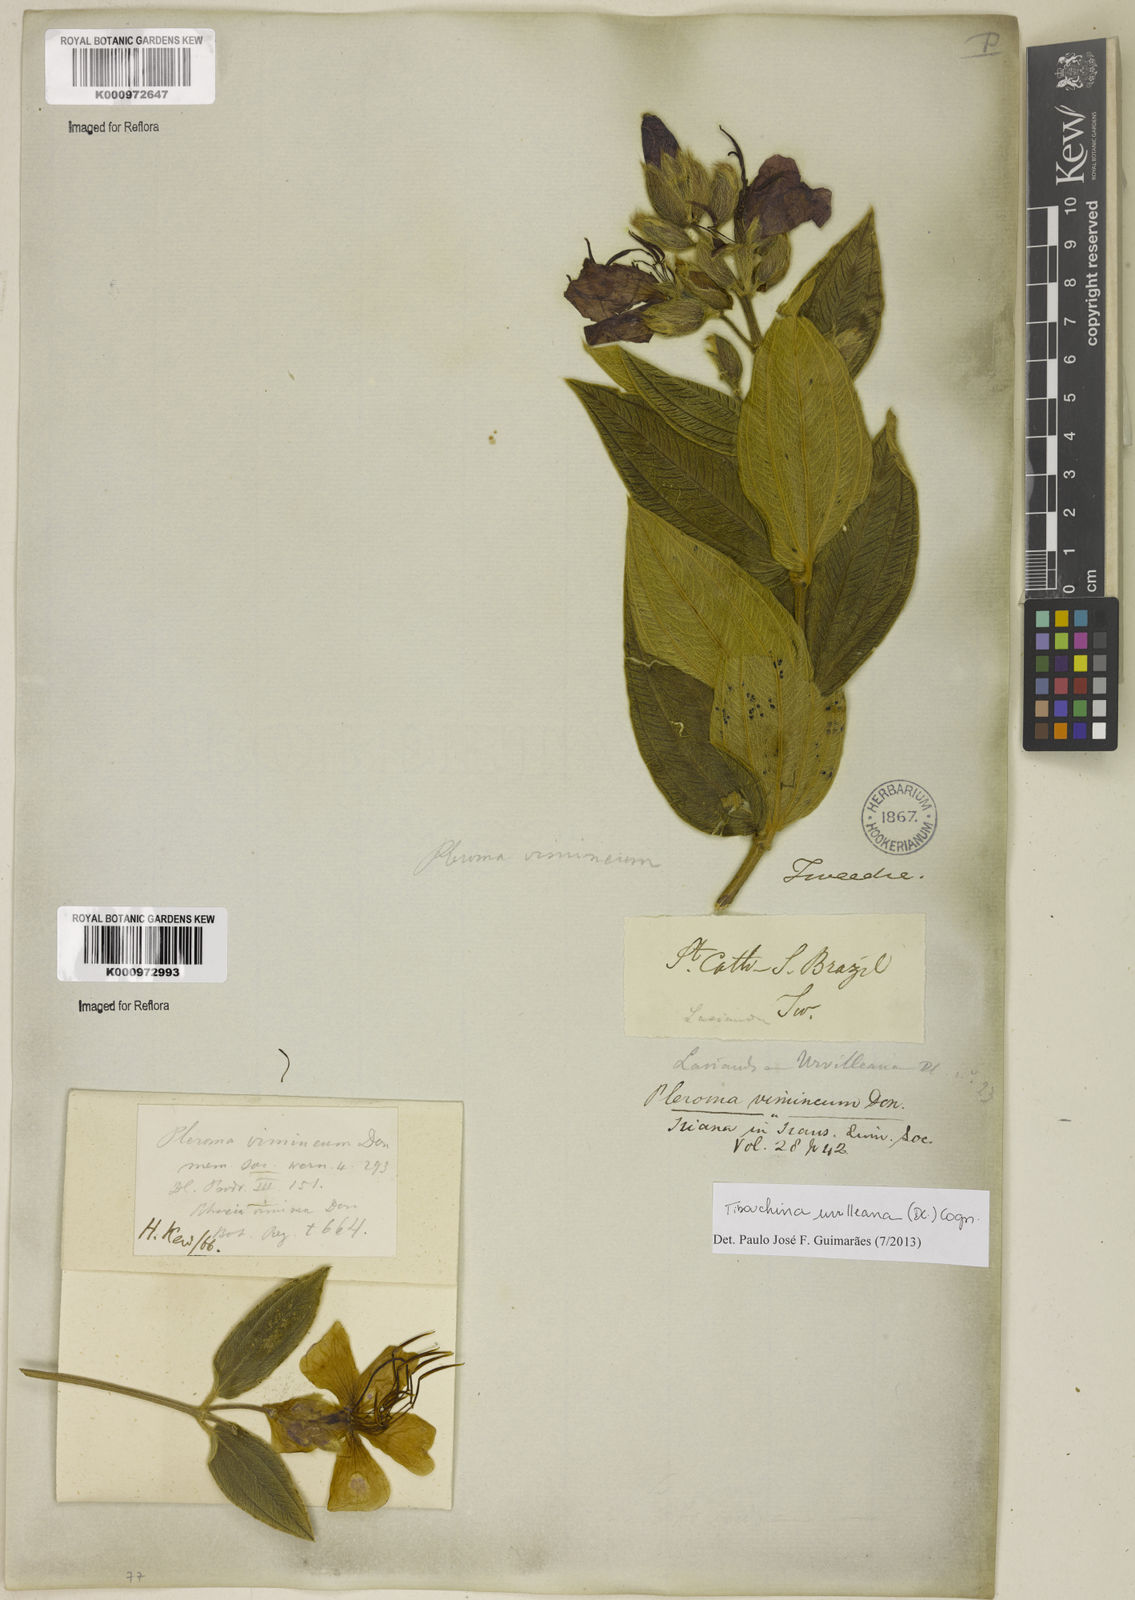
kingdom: Plantae
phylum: Tracheophyta
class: Magnoliopsida
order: Myrtales
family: Melastomataceae
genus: Pleroma
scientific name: Pleroma urvilleanum
